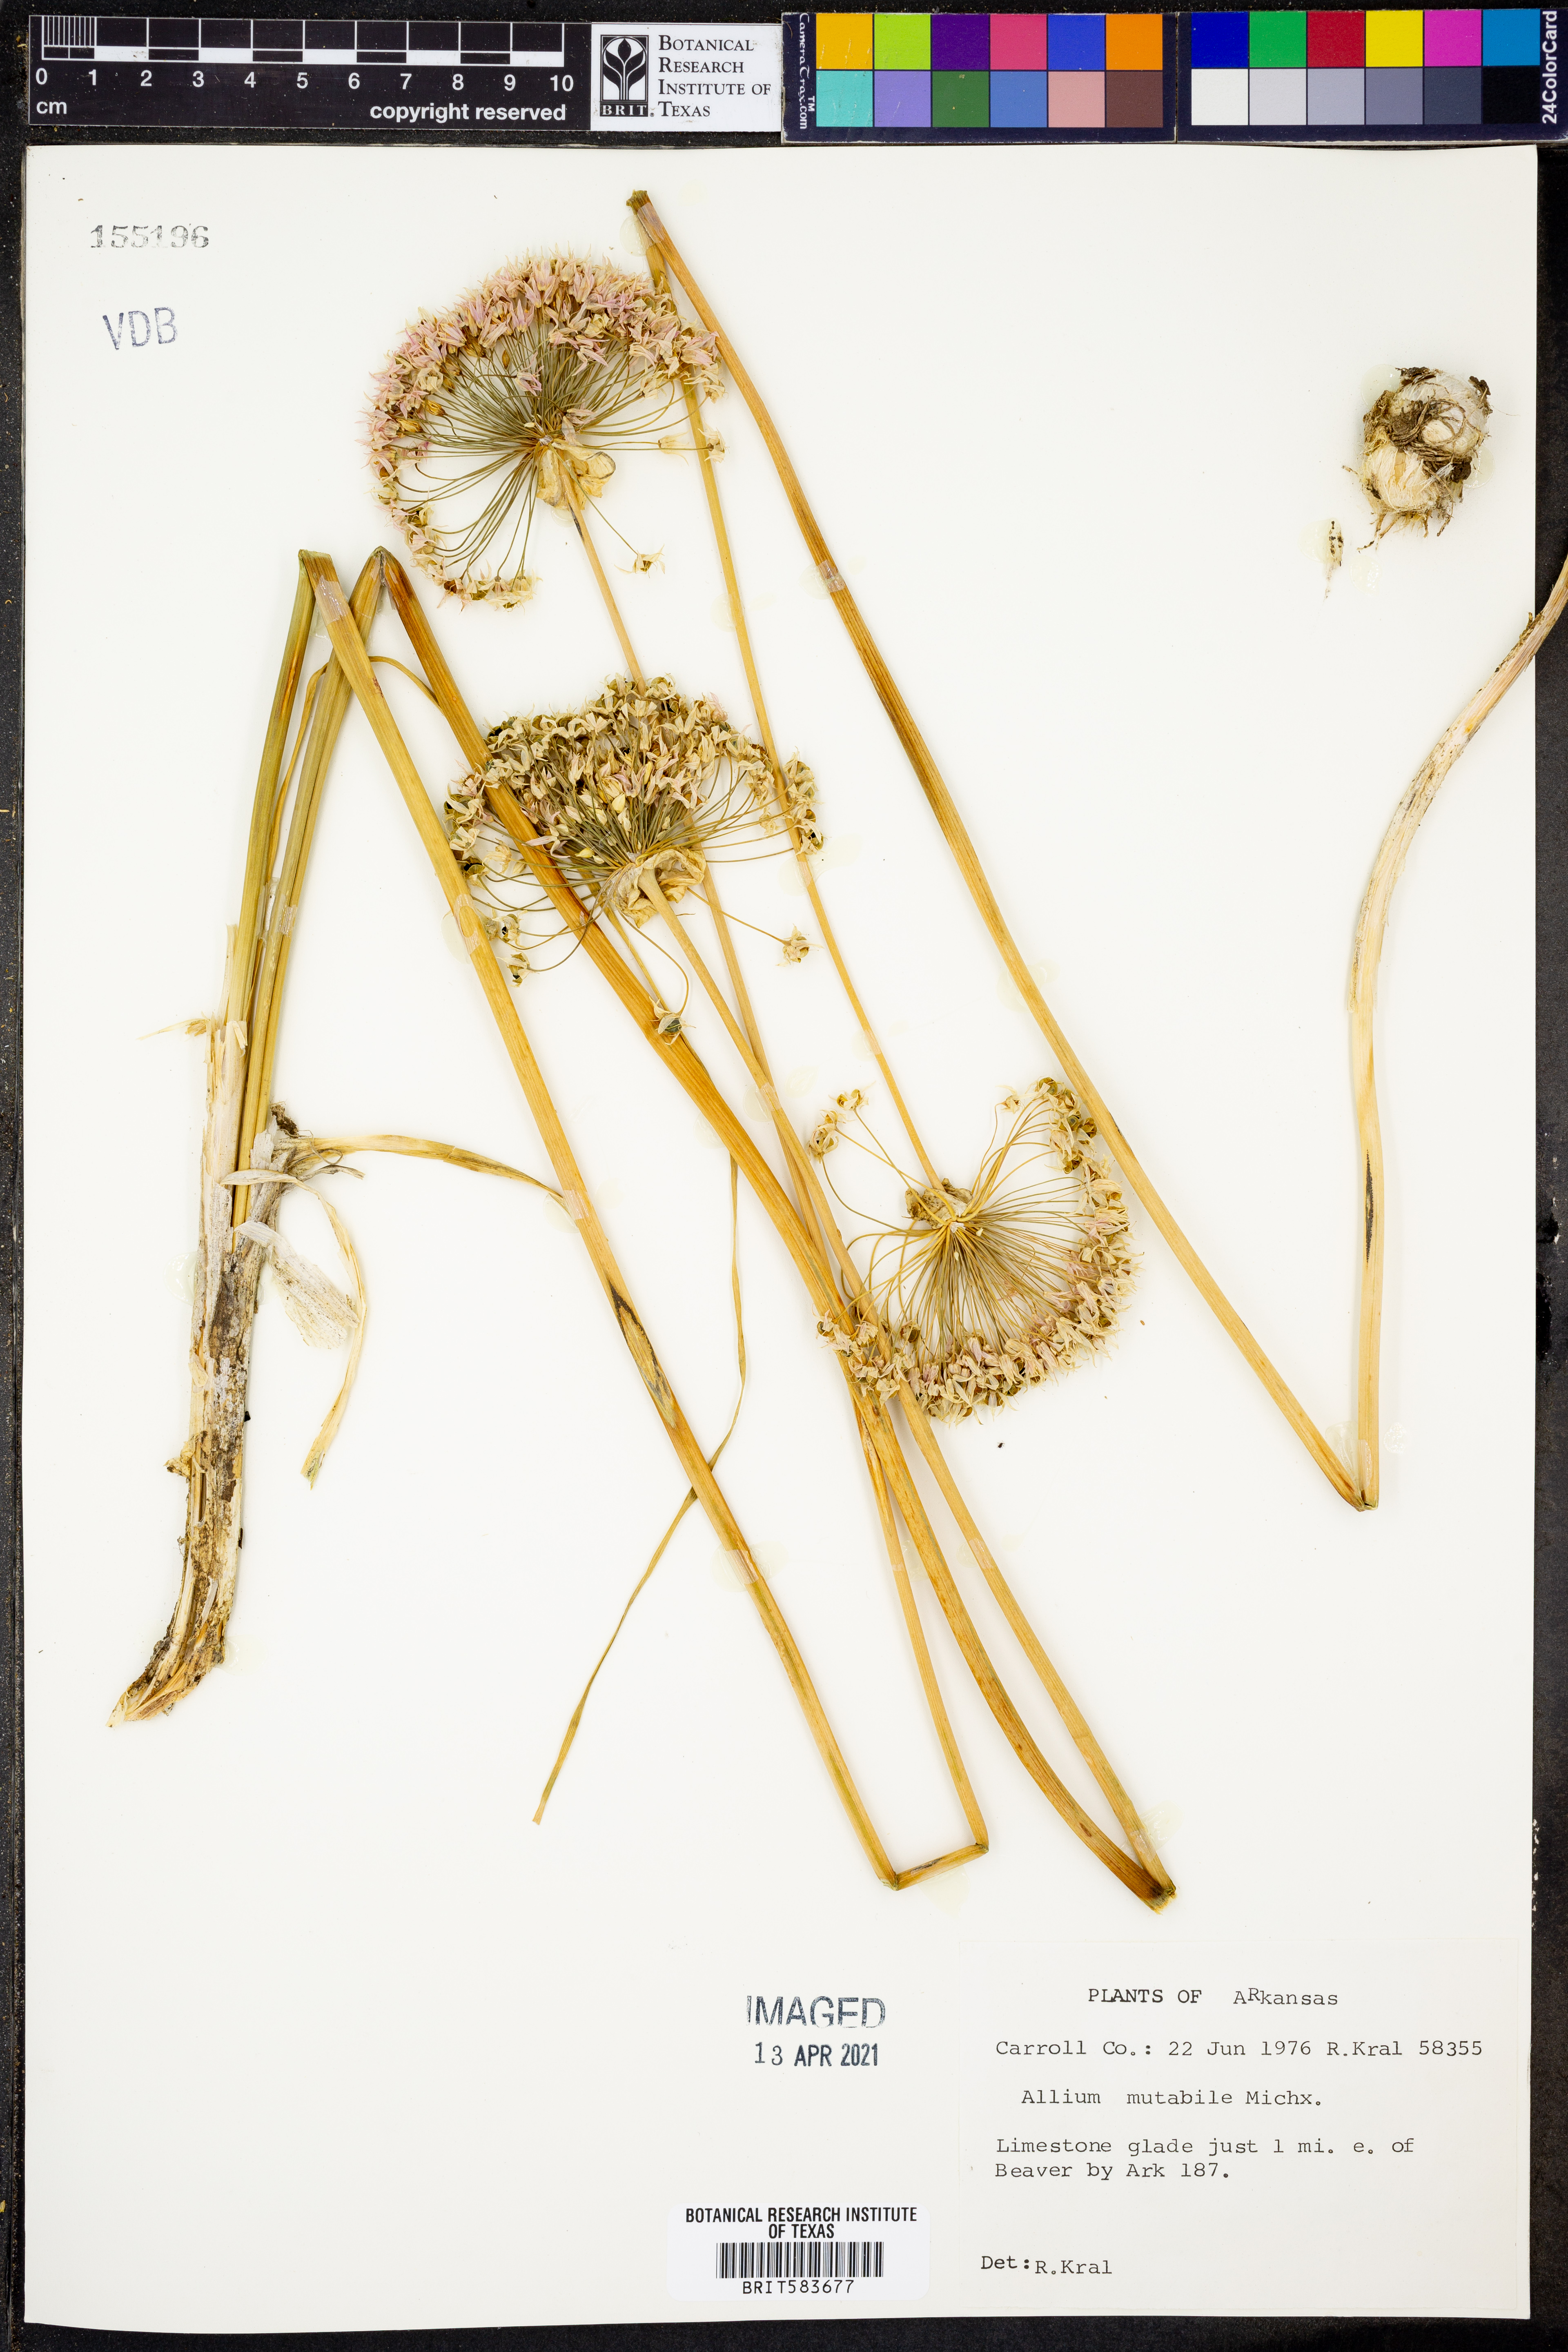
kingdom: Plantae
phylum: Tracheophyta
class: Liliopsida
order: Asparagales
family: Amaryllidaceae
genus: Allium
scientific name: Allium canadense
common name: Meadow garlic
